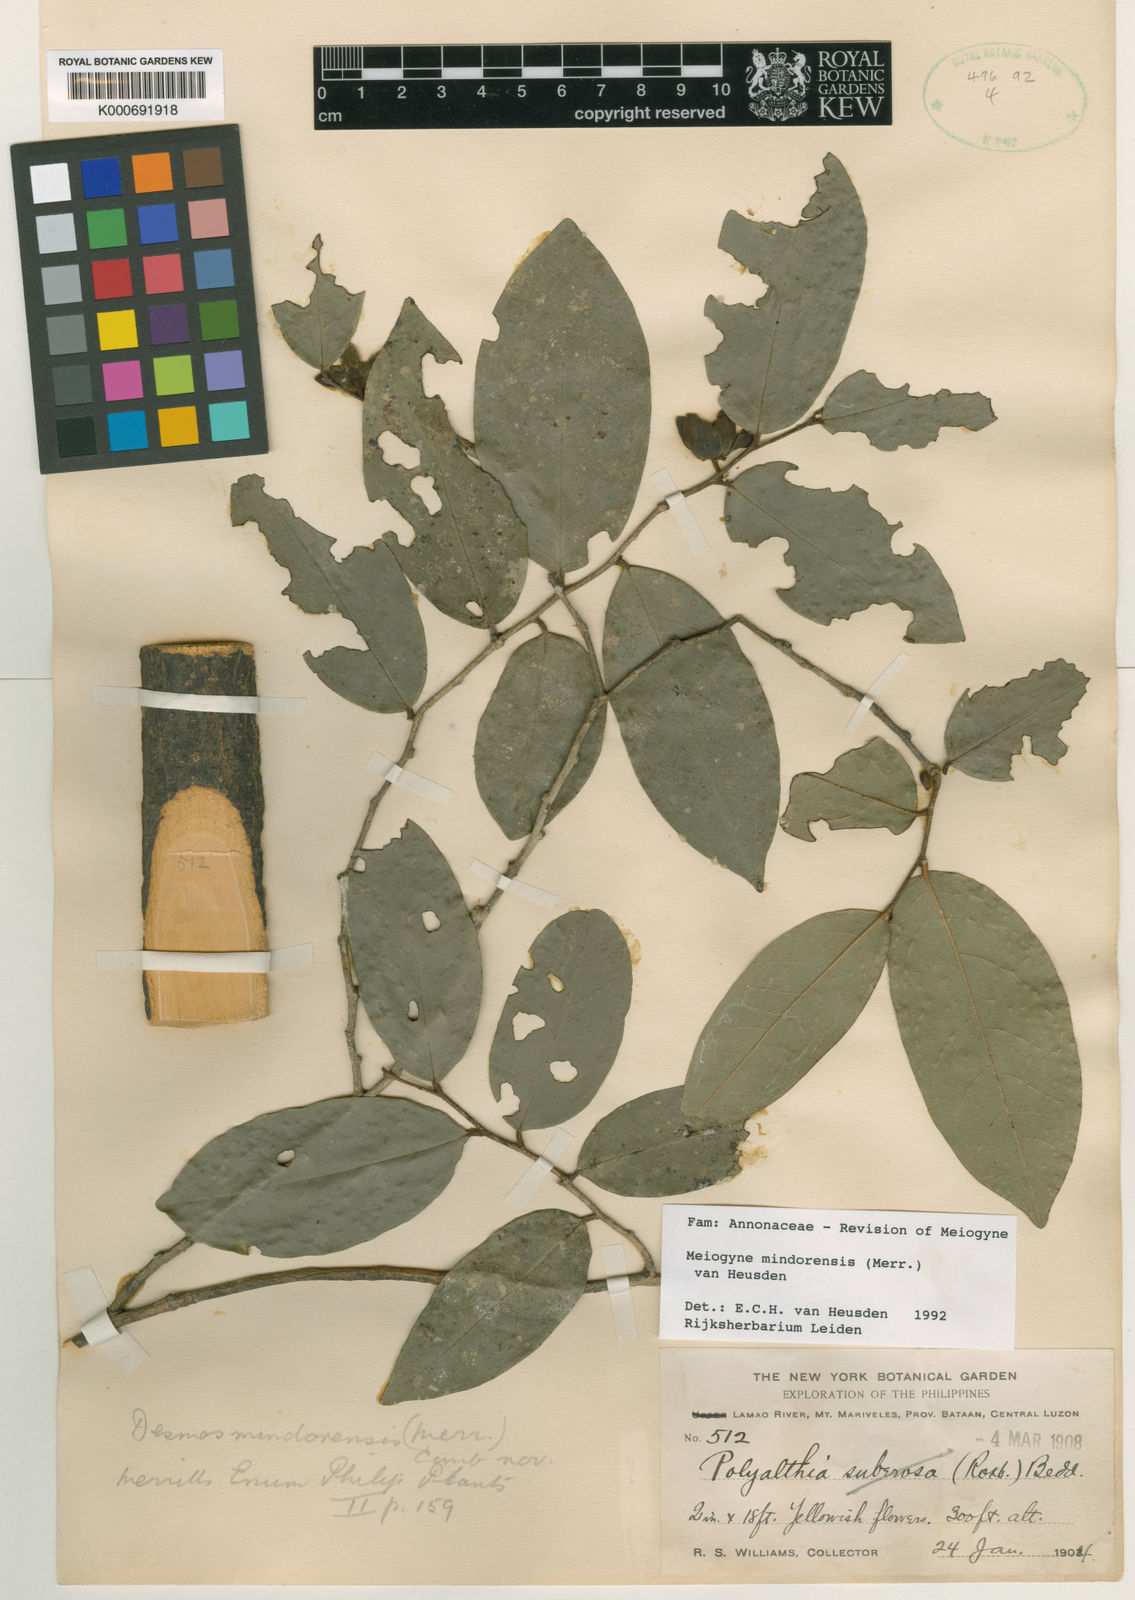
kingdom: Plantae
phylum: Tracheophyta
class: Magnoliopsida
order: Magnoliales
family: Annonaceae
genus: Oncodostigma
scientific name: Oncodostigma
